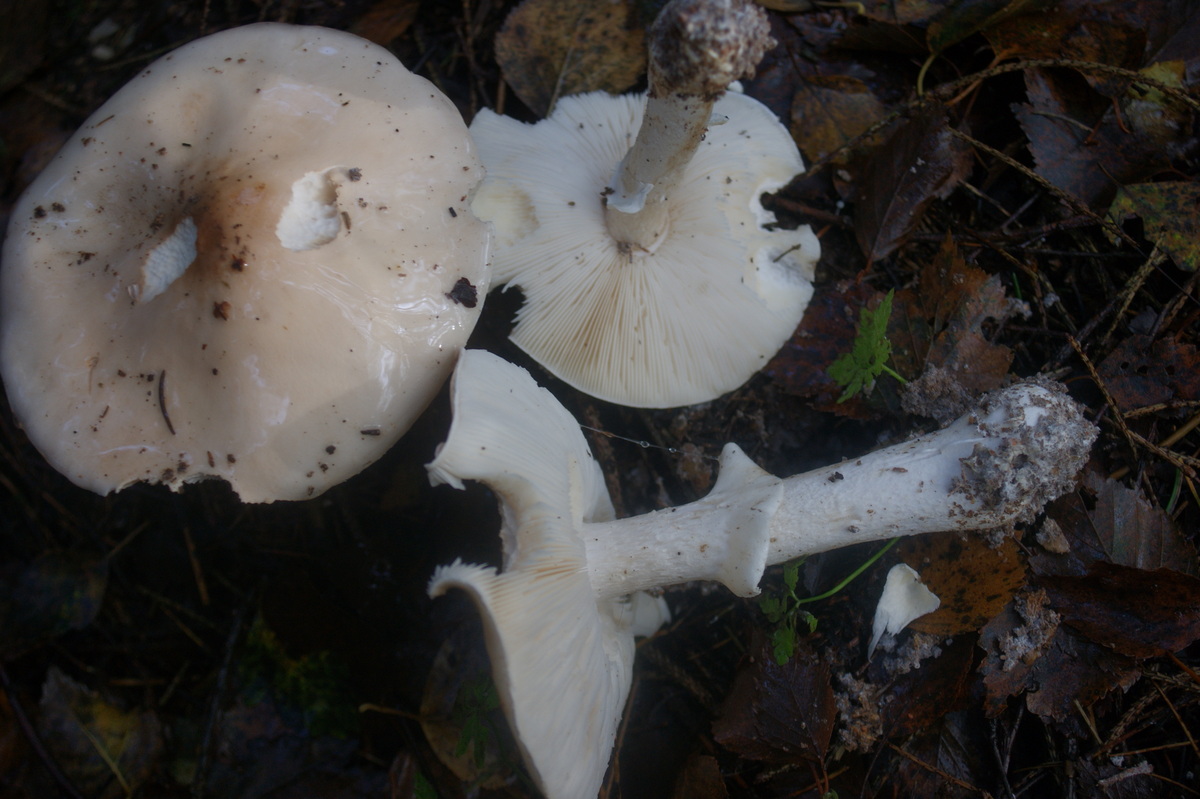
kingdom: Fungi
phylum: Basidiomycota
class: Agaricomycetes
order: Agaricales
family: Amanitaceae
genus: Limacellopsis
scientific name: Limacellopsis guttata
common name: tåre-snekkehat
